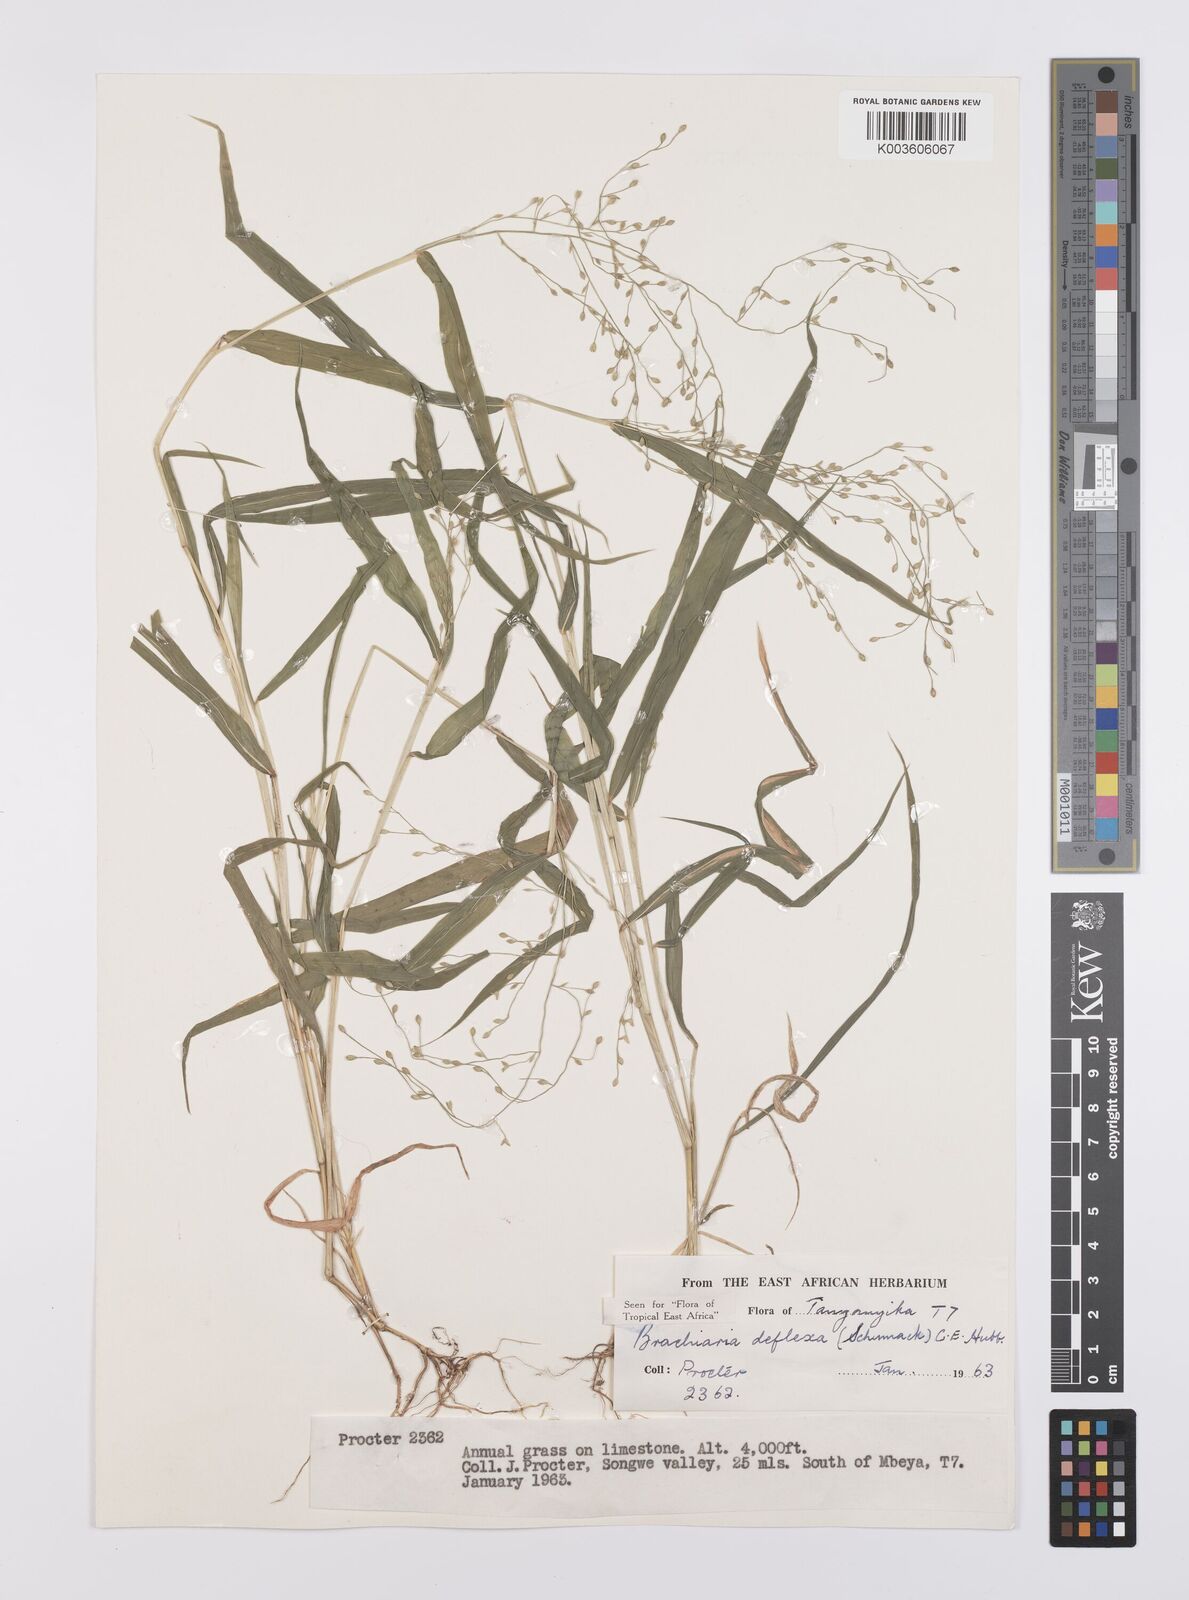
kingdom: Plantae
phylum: Tracheophyta
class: Liliopsida
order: Poales
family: Poaceae
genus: Urochloa
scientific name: Urochloa deflexa
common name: Guinea millet
